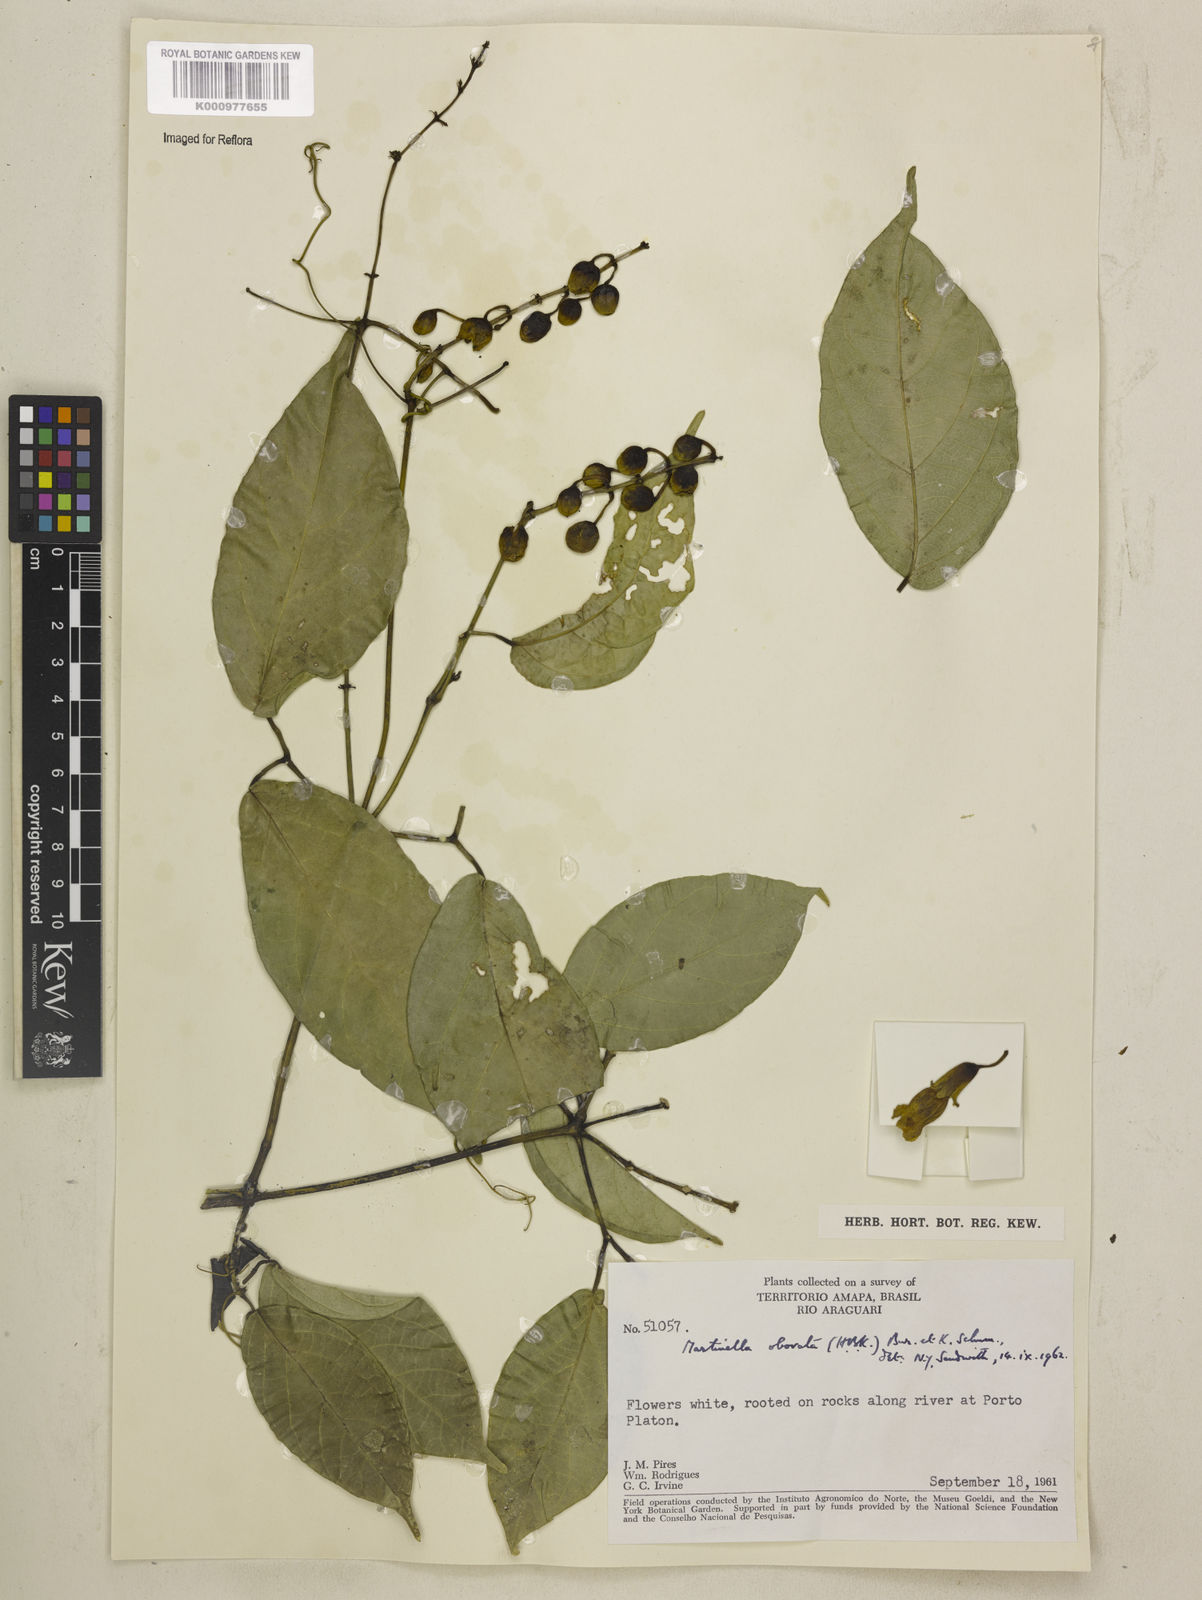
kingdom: Animalia
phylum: Arthropoda
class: Insecta
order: Coleoptera
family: Chrysomelidae
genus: Martinella
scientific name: Martinella obovata
